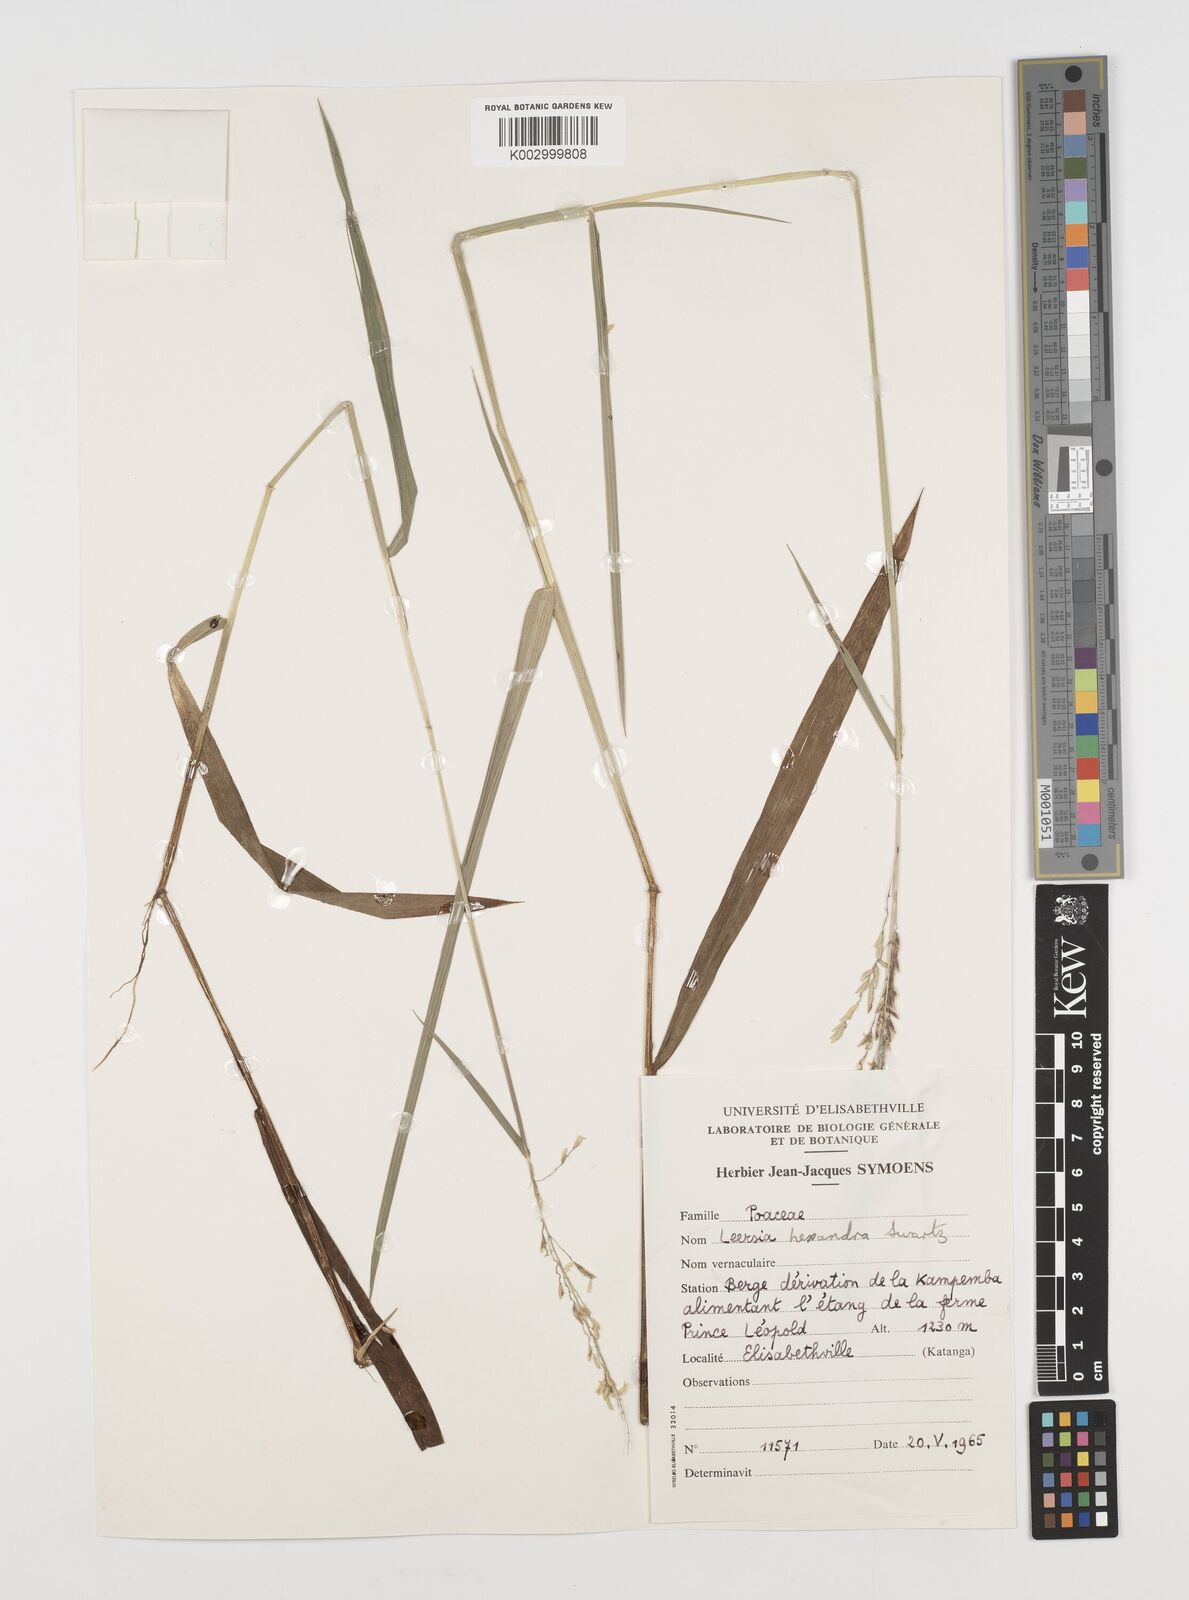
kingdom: Plantae
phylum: Tracheophyta
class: Liliopsida
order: Poales
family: Poaceae
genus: Leersia
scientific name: Leersia hexandra
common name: Southern cut grass
